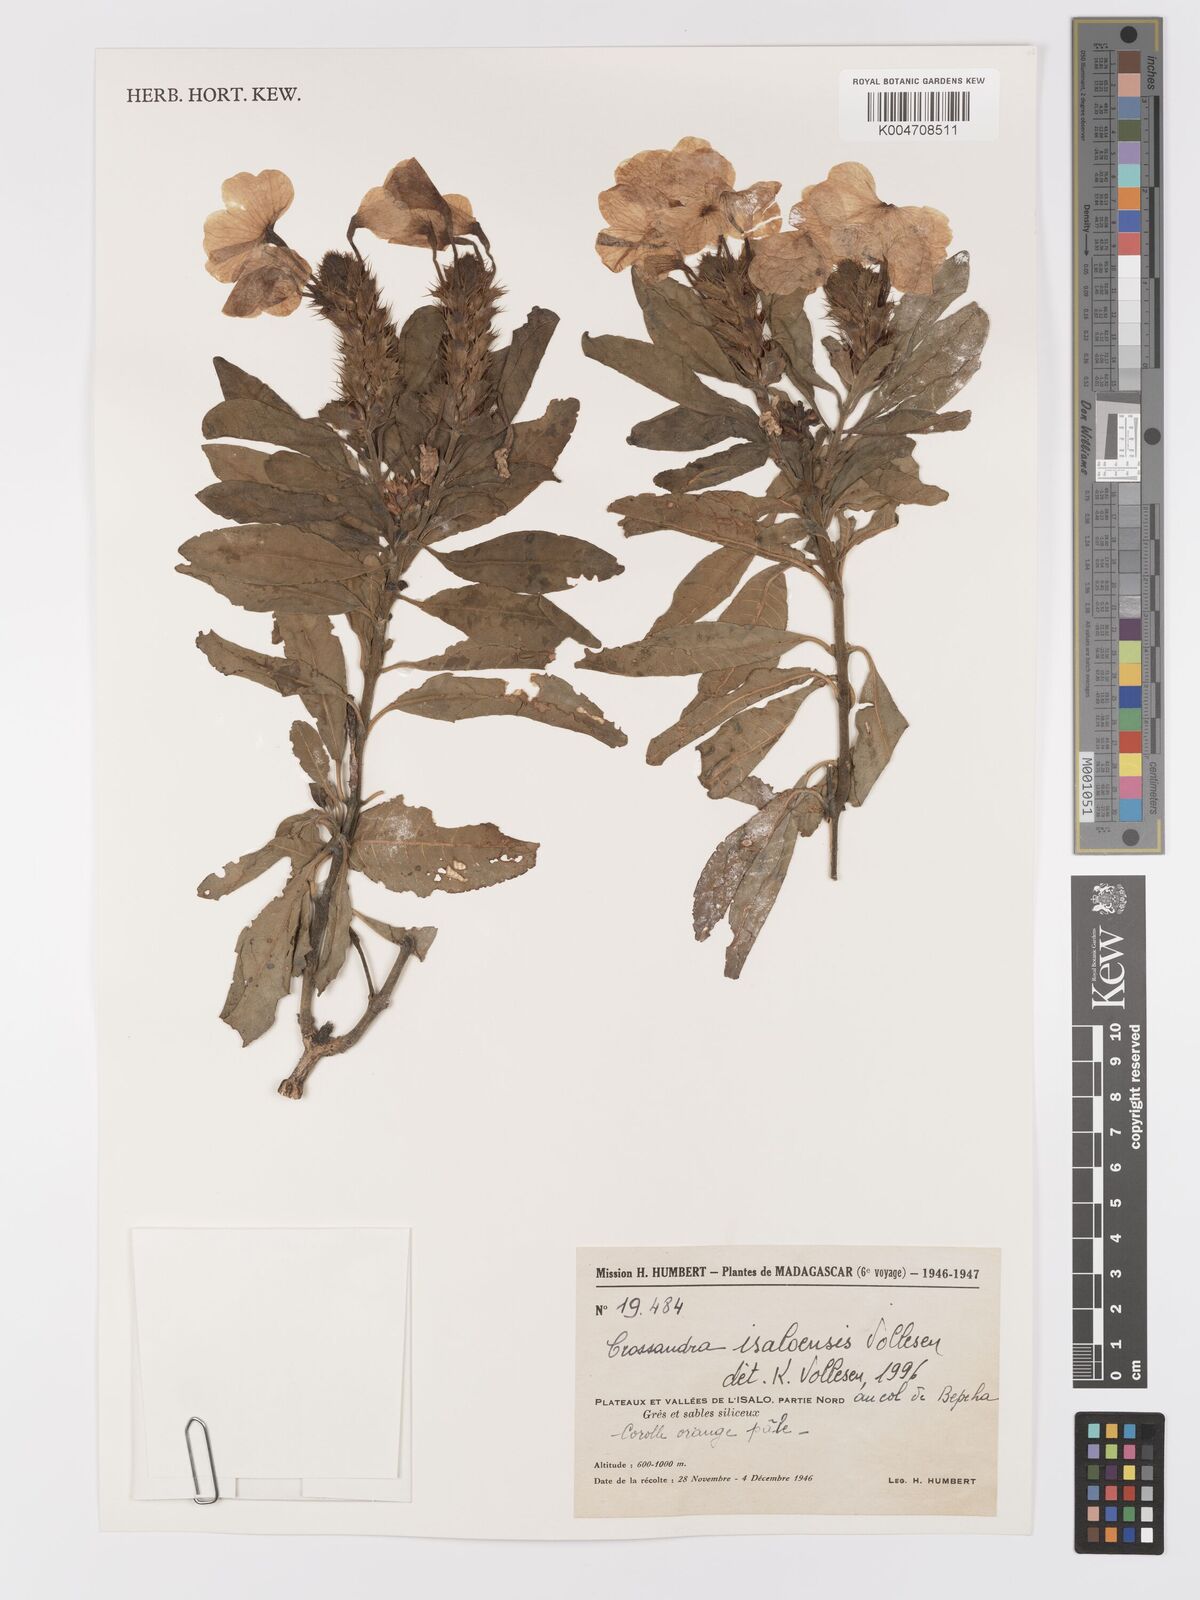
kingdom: Plantae
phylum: Tracheophyta
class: Magnoliopsida
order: Lamiales
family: Acanthaceae
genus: Crossandra
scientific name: Crossandra isaloensis
